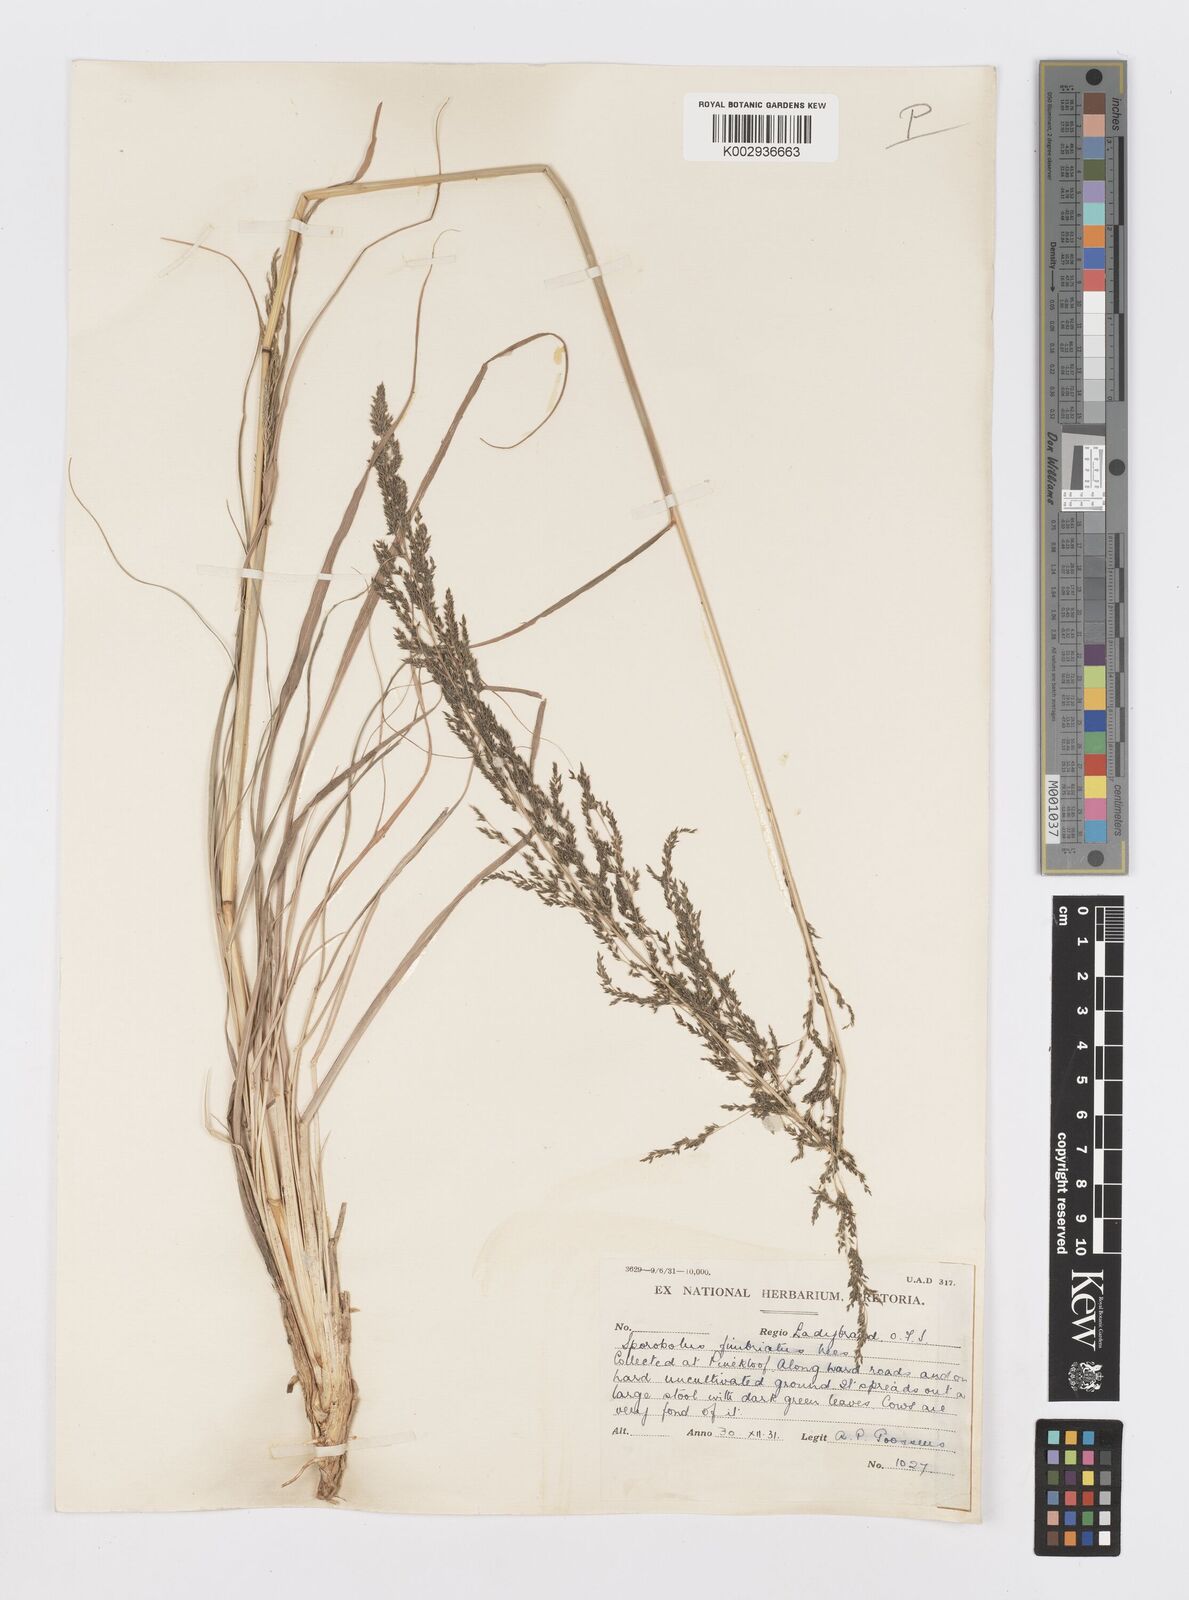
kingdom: Plantae
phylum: Tracheophyta
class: Liliopsida
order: Poales
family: Poaceae
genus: Sporobolus
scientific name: Sporobolus fimbriatus
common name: Fringed dropseed
